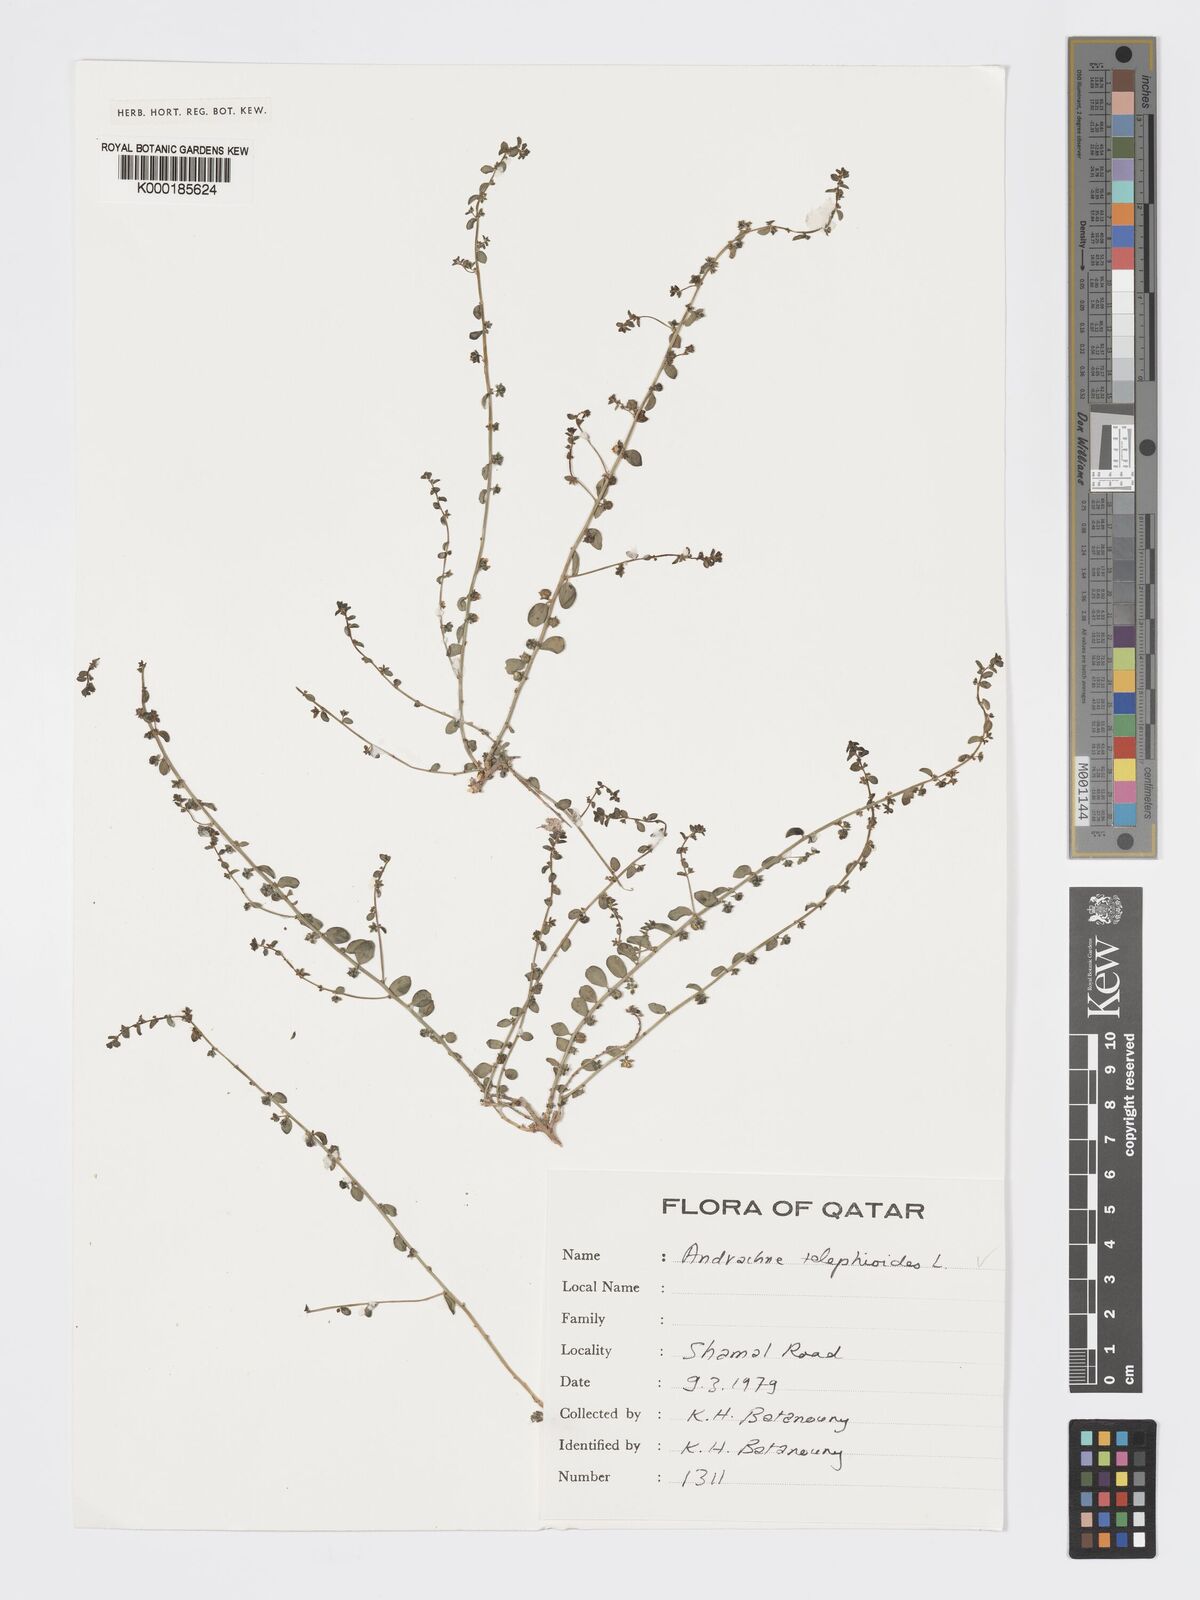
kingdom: Plantae
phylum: Tracheophyta
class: Magnoliopsida
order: Malpighiales
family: Phyllanthaceae
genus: Andrachne
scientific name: Andrachne telephioides
